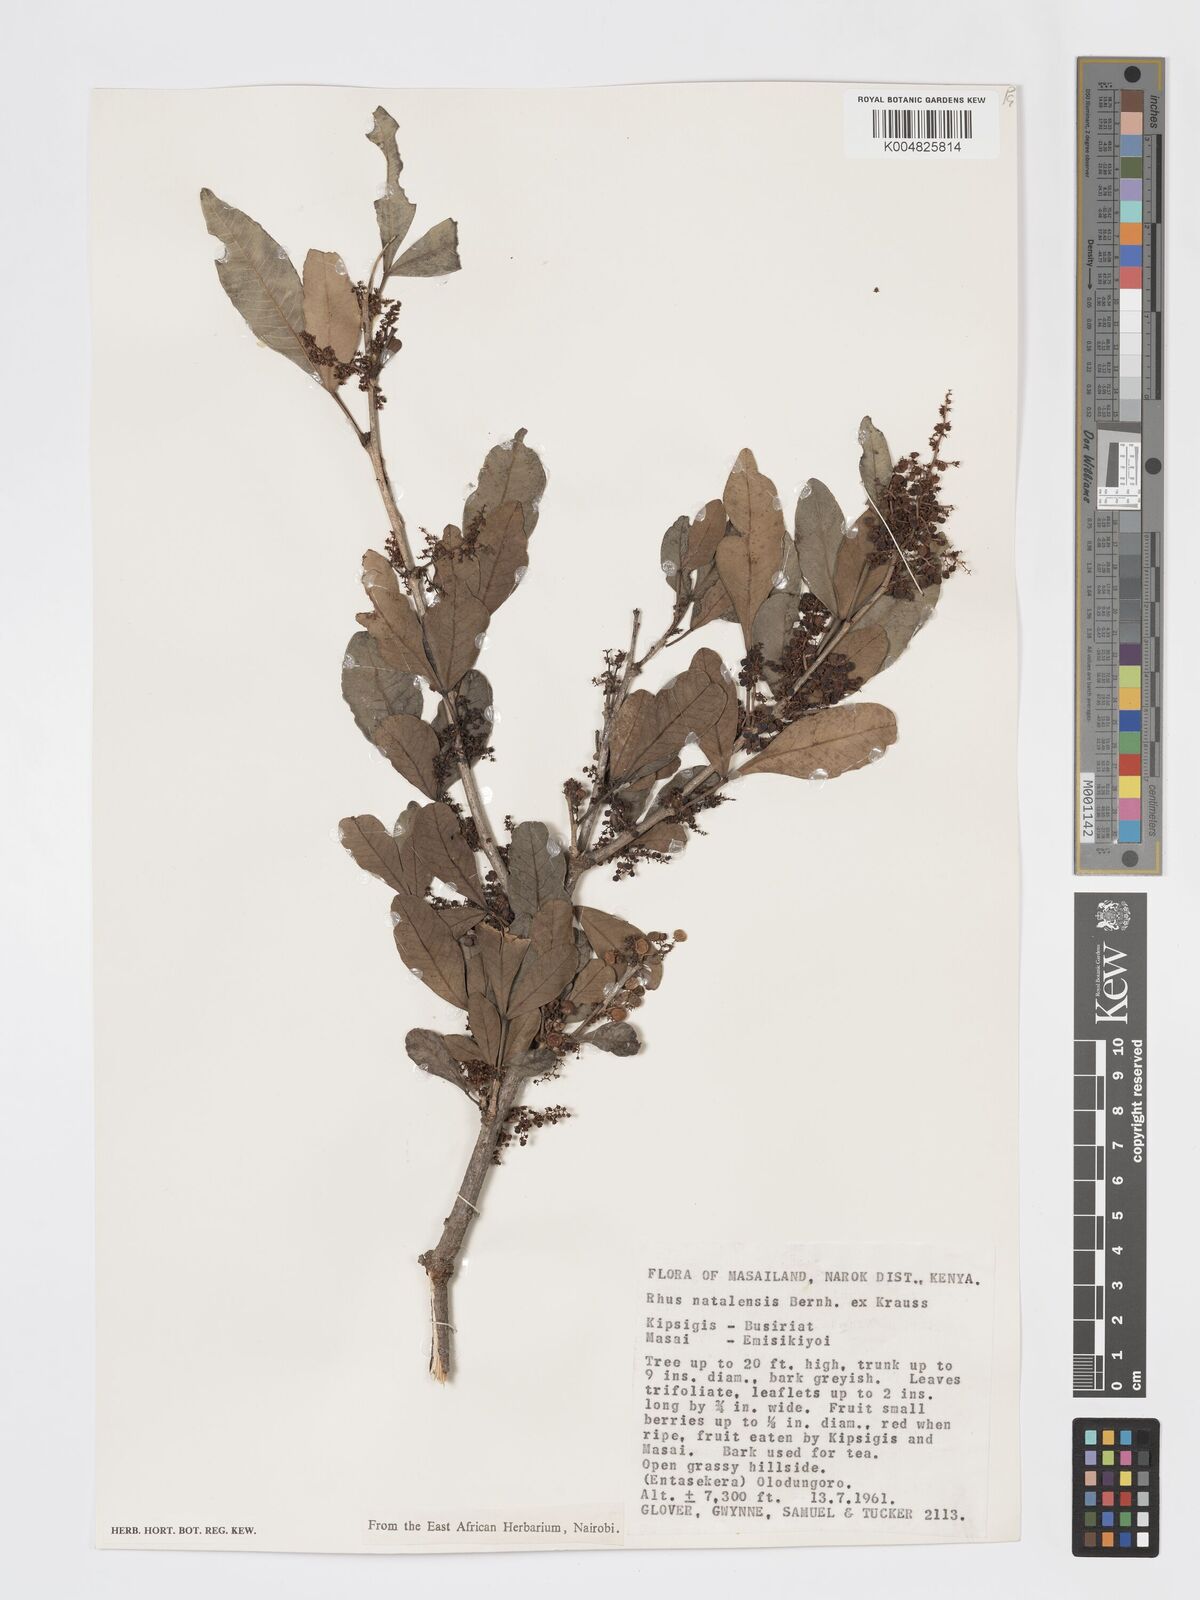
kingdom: Plantae
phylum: Tracheophyta
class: Magnoliopsida
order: Sapindales
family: Anacardiaceae
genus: Searsia
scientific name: Searsia natalensis
